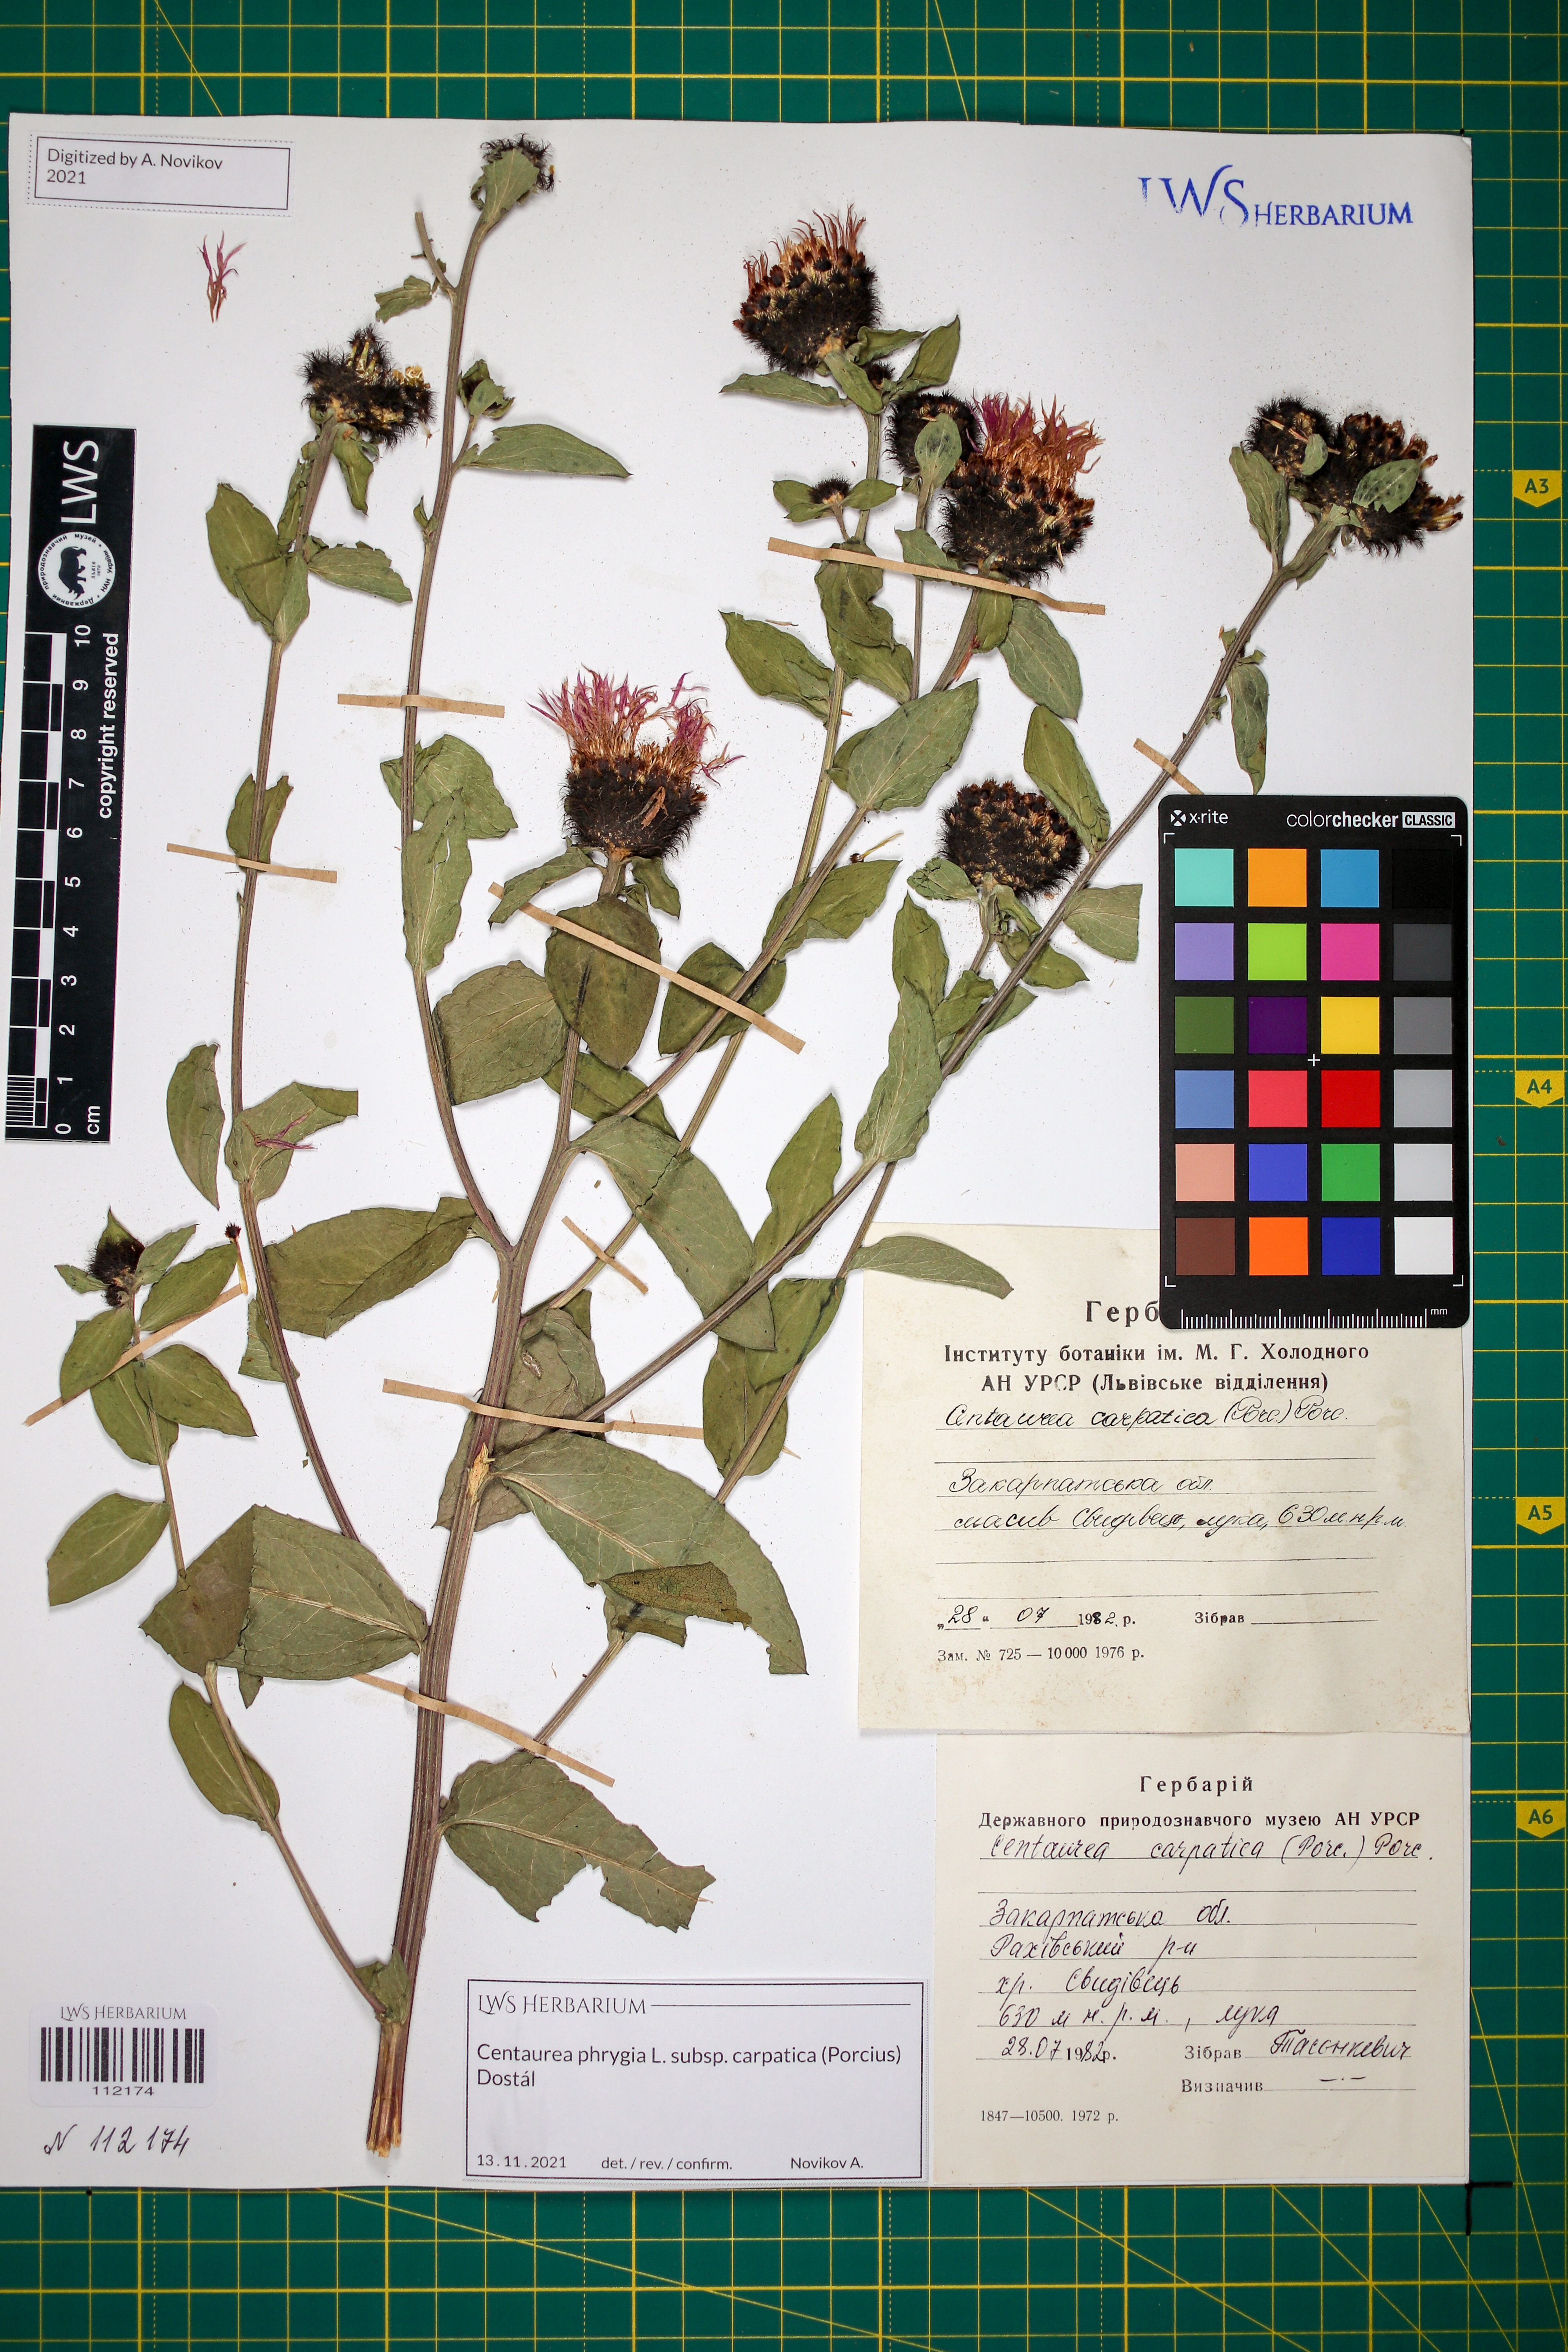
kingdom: Plantae
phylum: Tracheophyta
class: Magnoliopsida
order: Asterales
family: Asteraceae
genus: Centaurea
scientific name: Centaurea phrygia
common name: Wig knapweed
